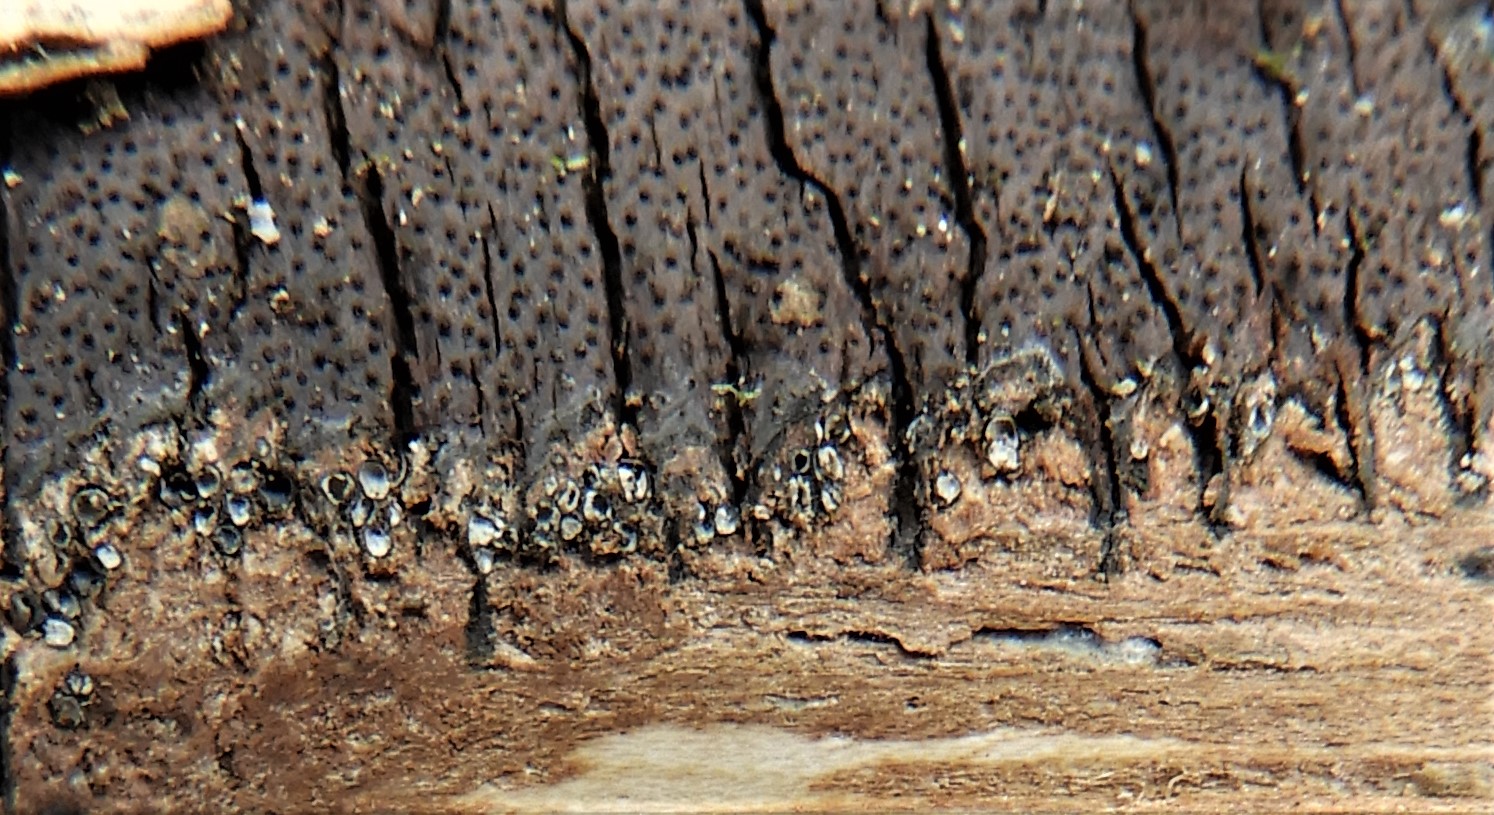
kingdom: Fungi
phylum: Ascomycota
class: Sordariomycetes
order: Xylariales
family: Diatrypaceae
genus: Diatrype
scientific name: Diatrype decorticata
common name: barksprænger-kulskorpe
